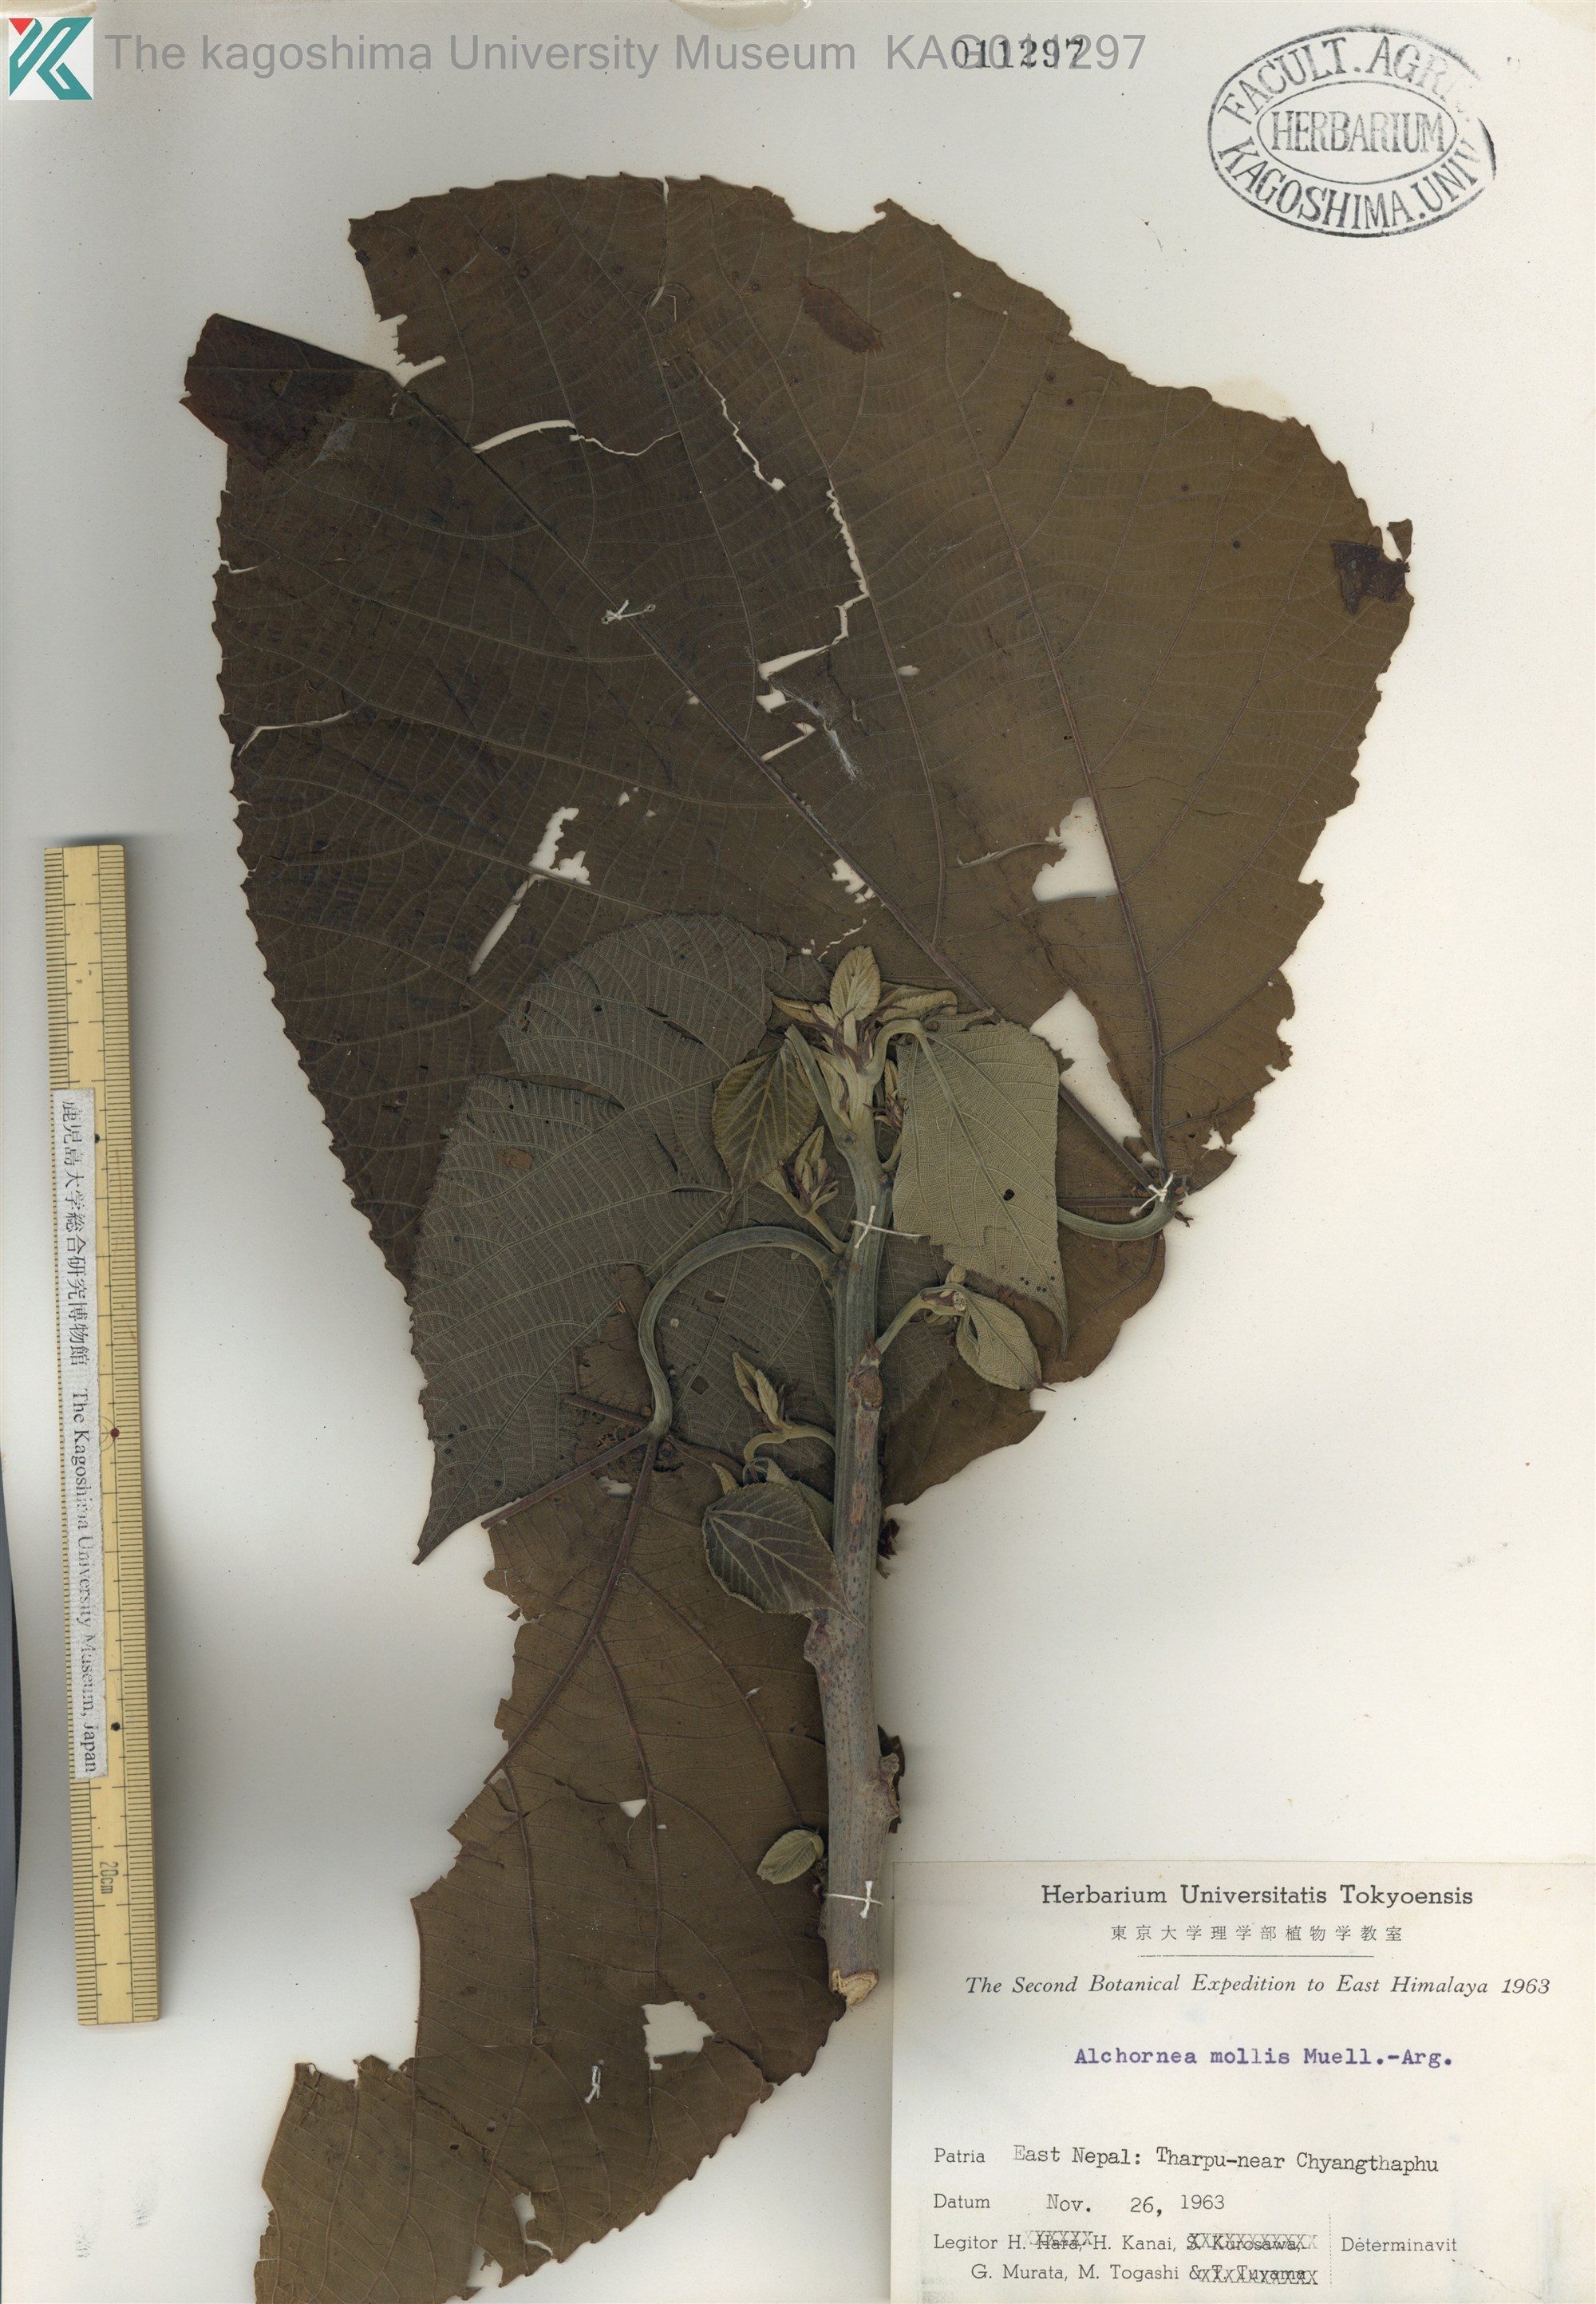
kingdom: Plantae
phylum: Tracheophyta
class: Magnoliopsida
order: Malpighiales
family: Euphorbiaceae
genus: Alchornea
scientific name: Alchornea mollis
